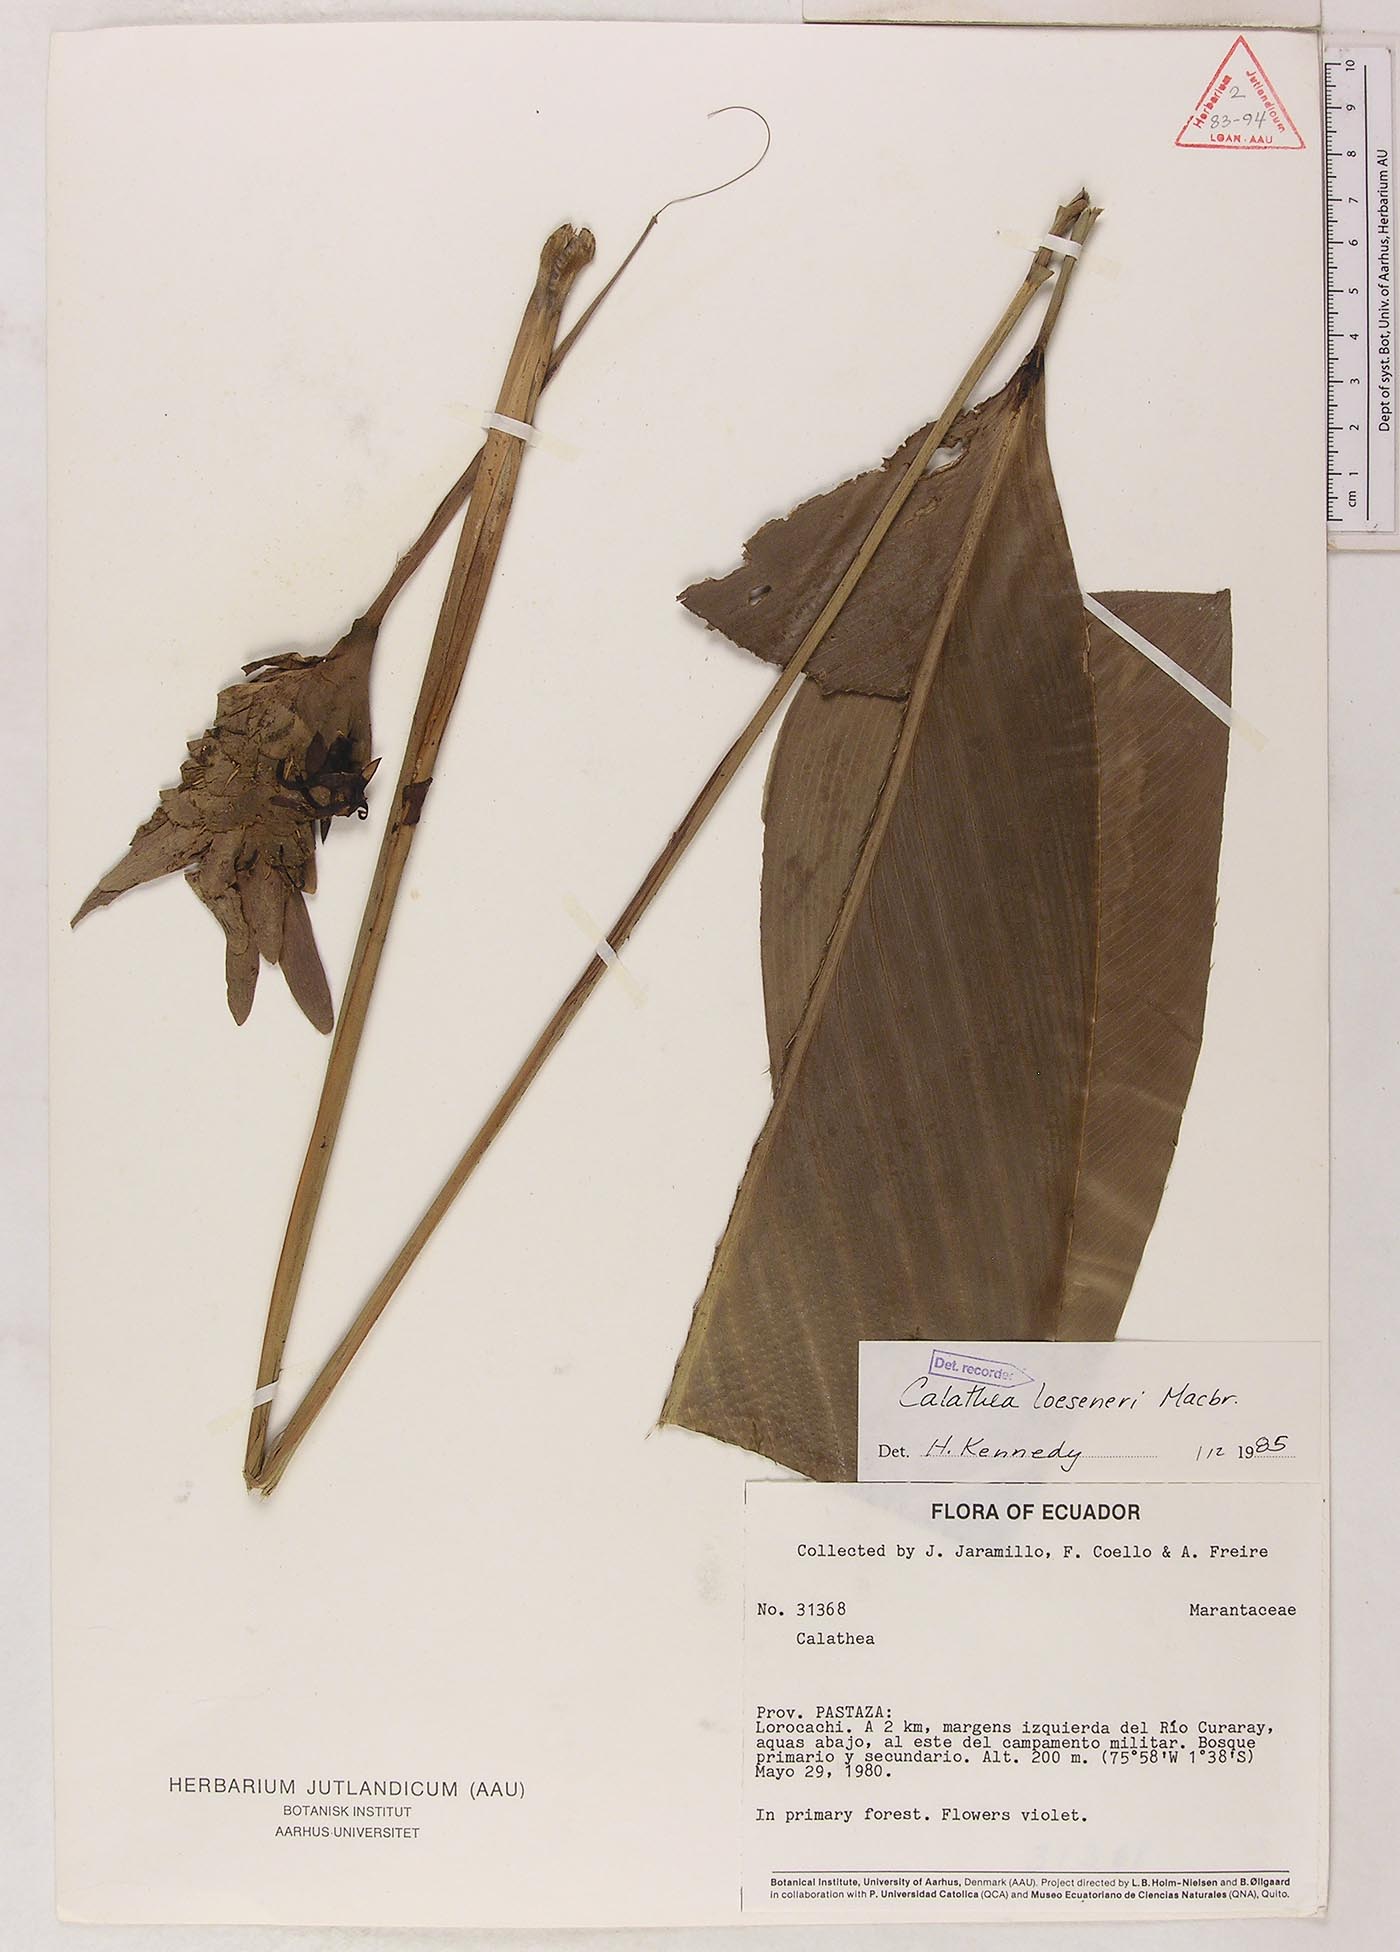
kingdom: Plantae
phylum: Tracheophyta
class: Liliopsida
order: Zingiberales
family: Marantaceae
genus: Goeppertia
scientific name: Goeppertia loeseneri
